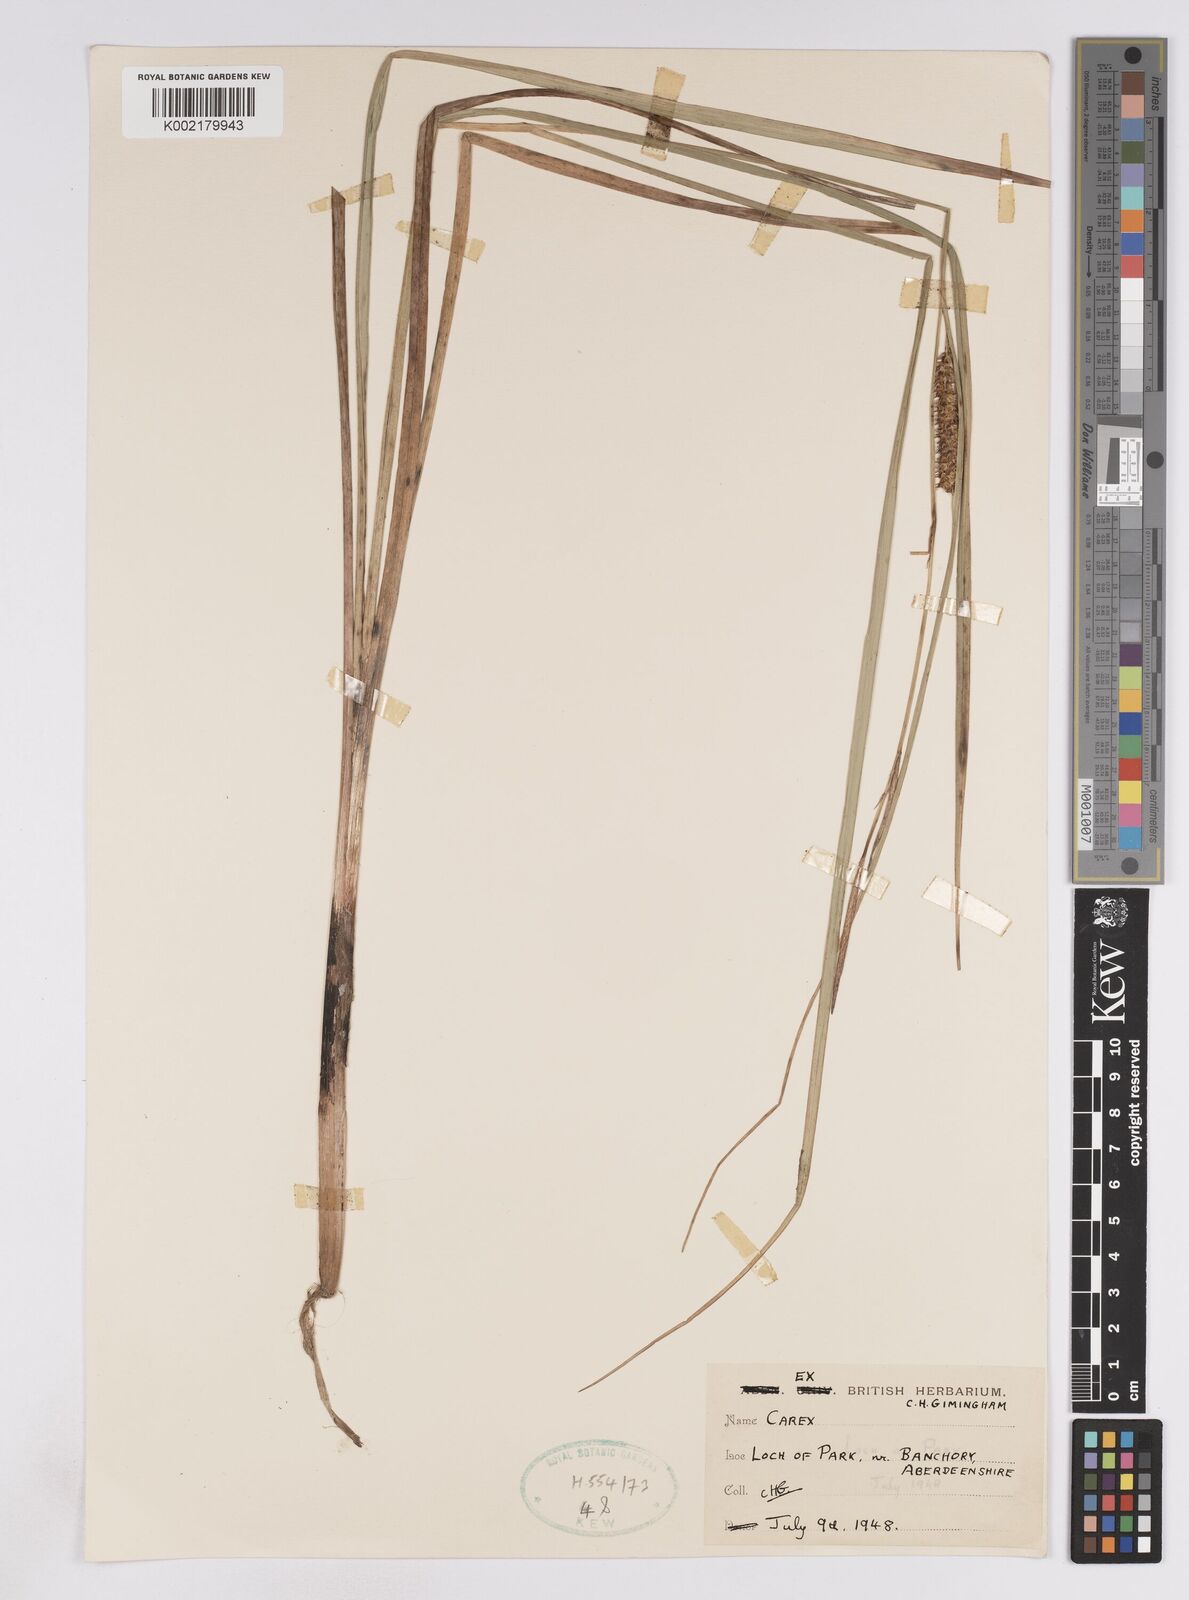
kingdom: Plantae
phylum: Tracheophyta
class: Liliopsida
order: Poales
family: Cyperaceae
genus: Carex
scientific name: Carex utriculata
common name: Beaked sedge
